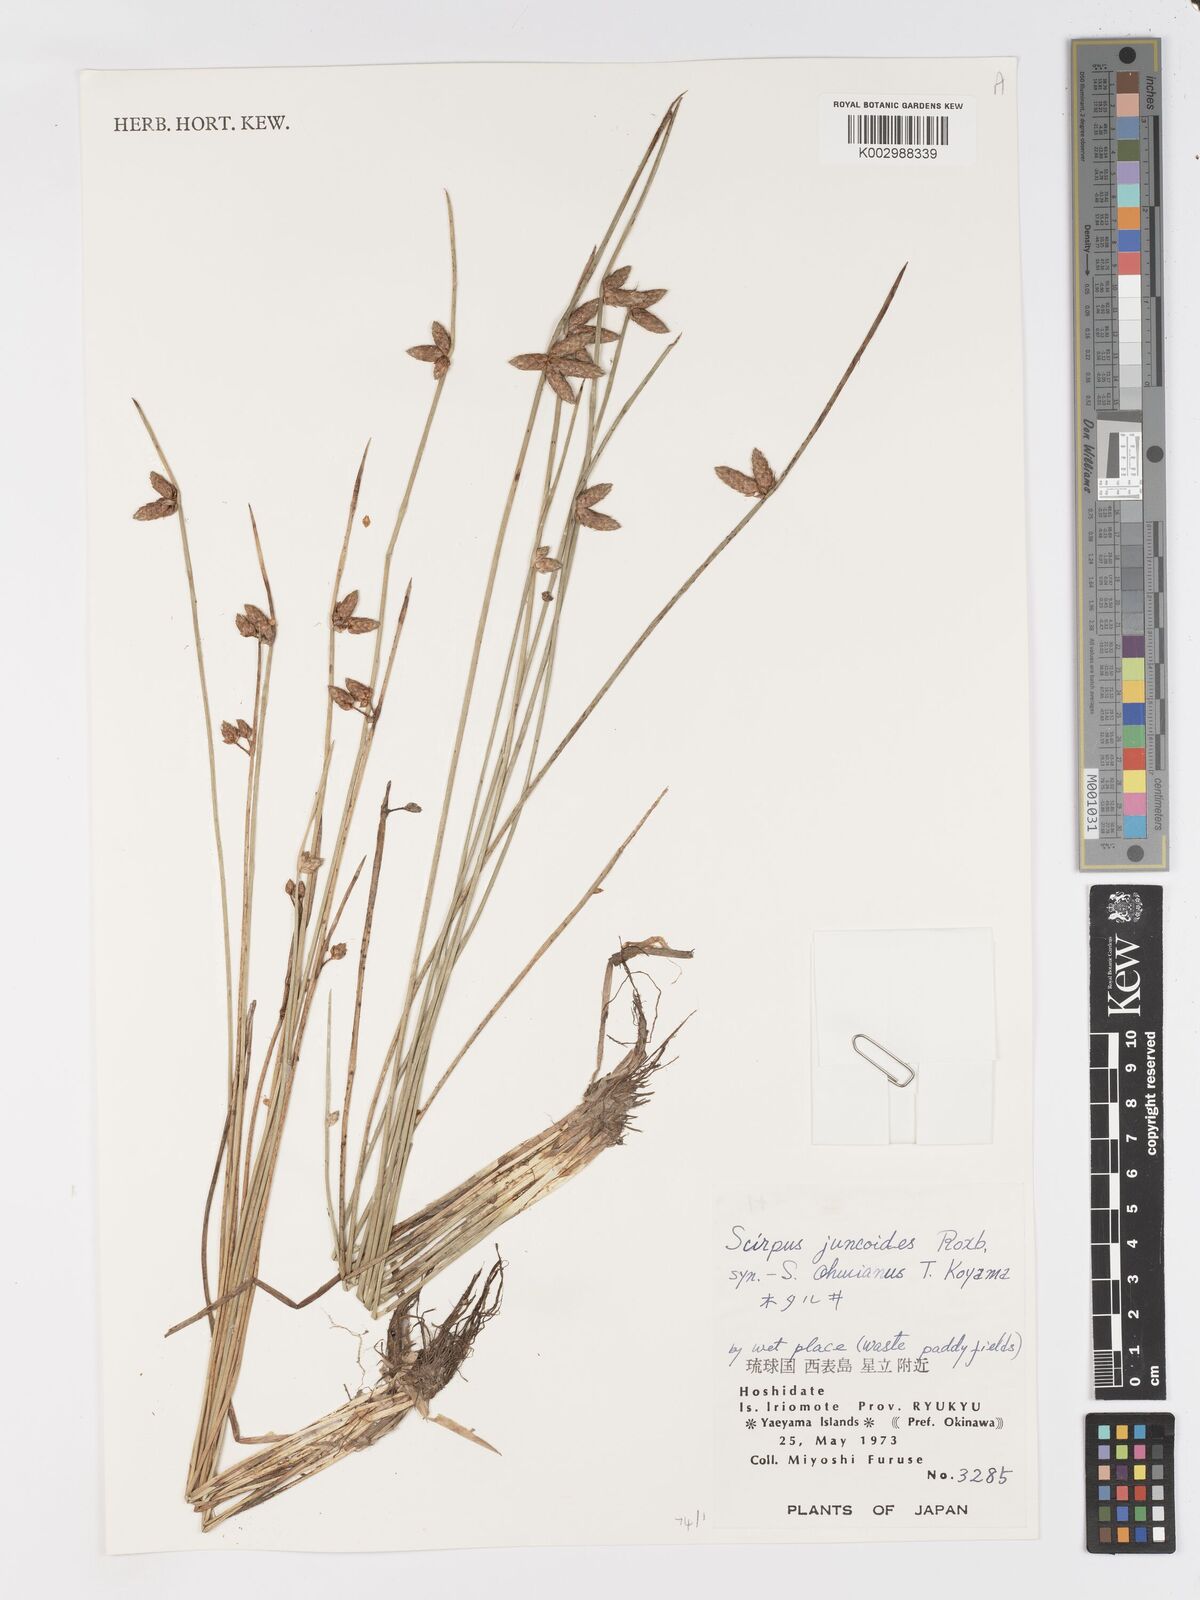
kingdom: Plantae
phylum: Tracheophyta
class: Liliopsida
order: Poales
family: Cyperaceae
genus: Schoenoplectiella
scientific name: Schoenoplectiella juncoides
